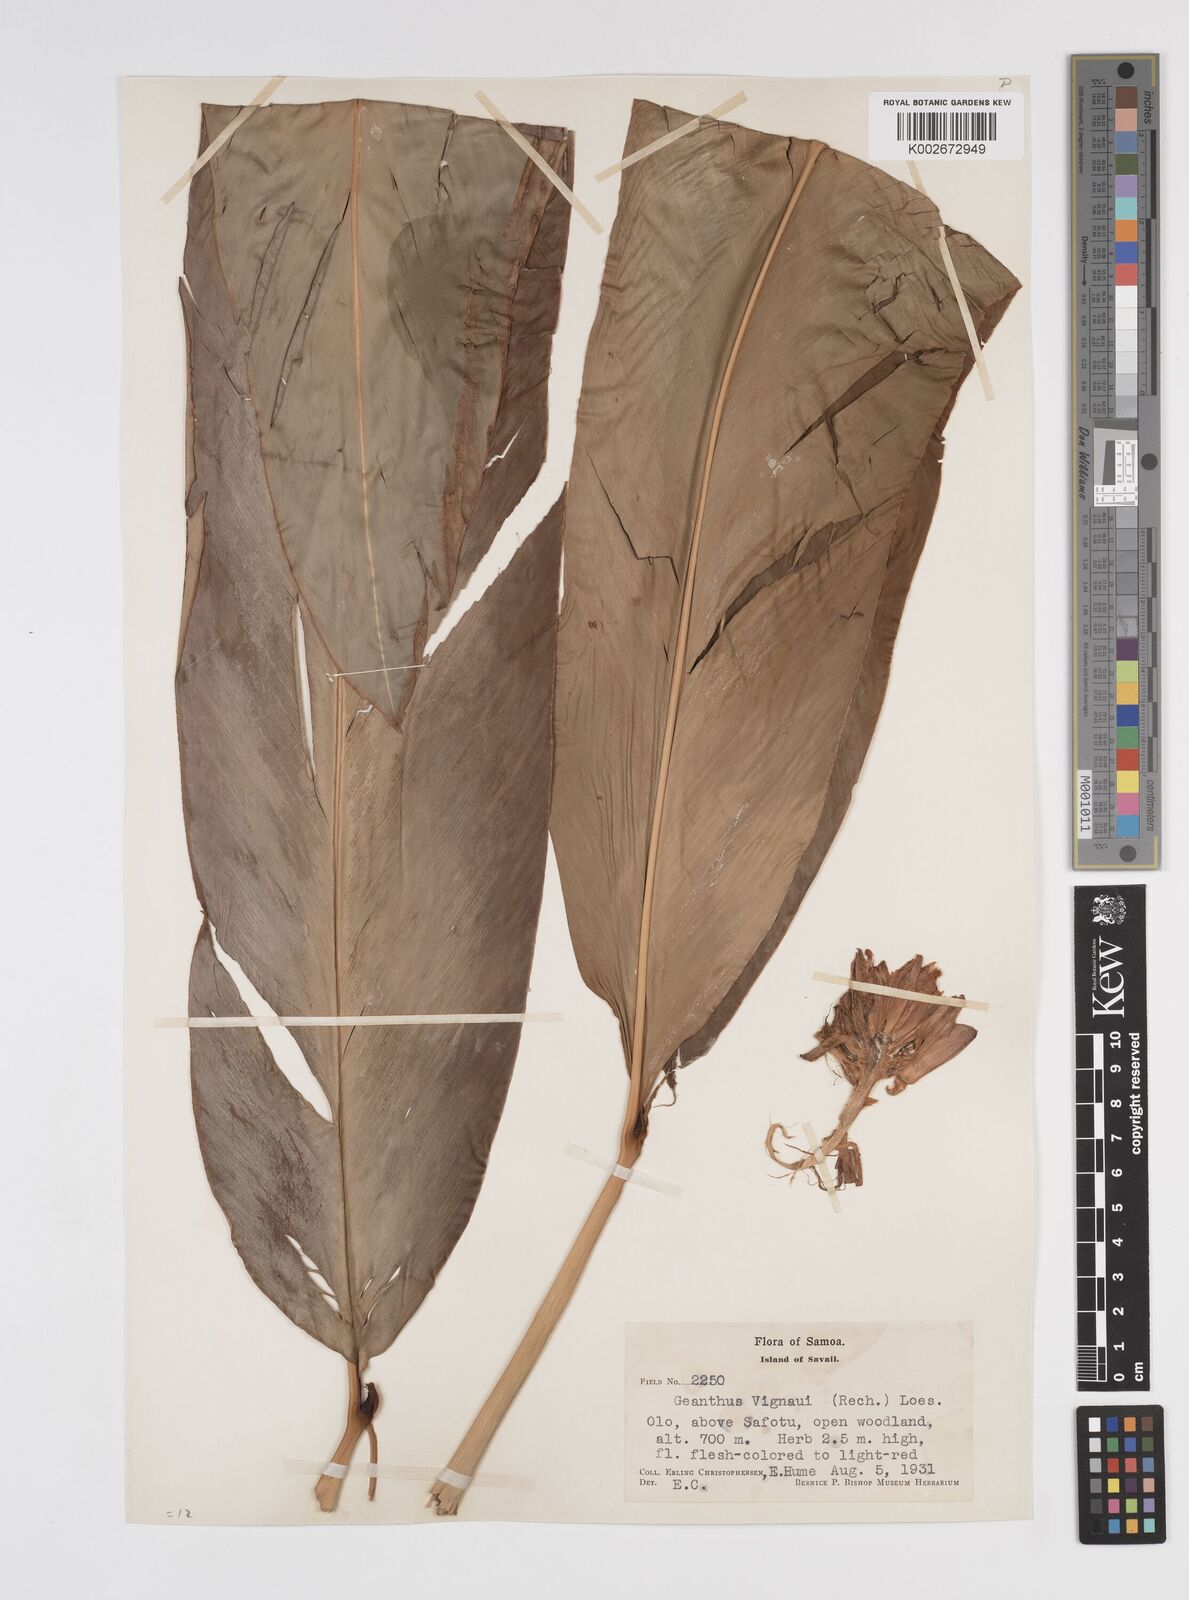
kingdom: Plantae
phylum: Tracheophyta
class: Liliopsida
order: Zingiberales
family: Zingiberaceae
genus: Etlingera
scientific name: Etlingera cevuga
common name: Waxflower
